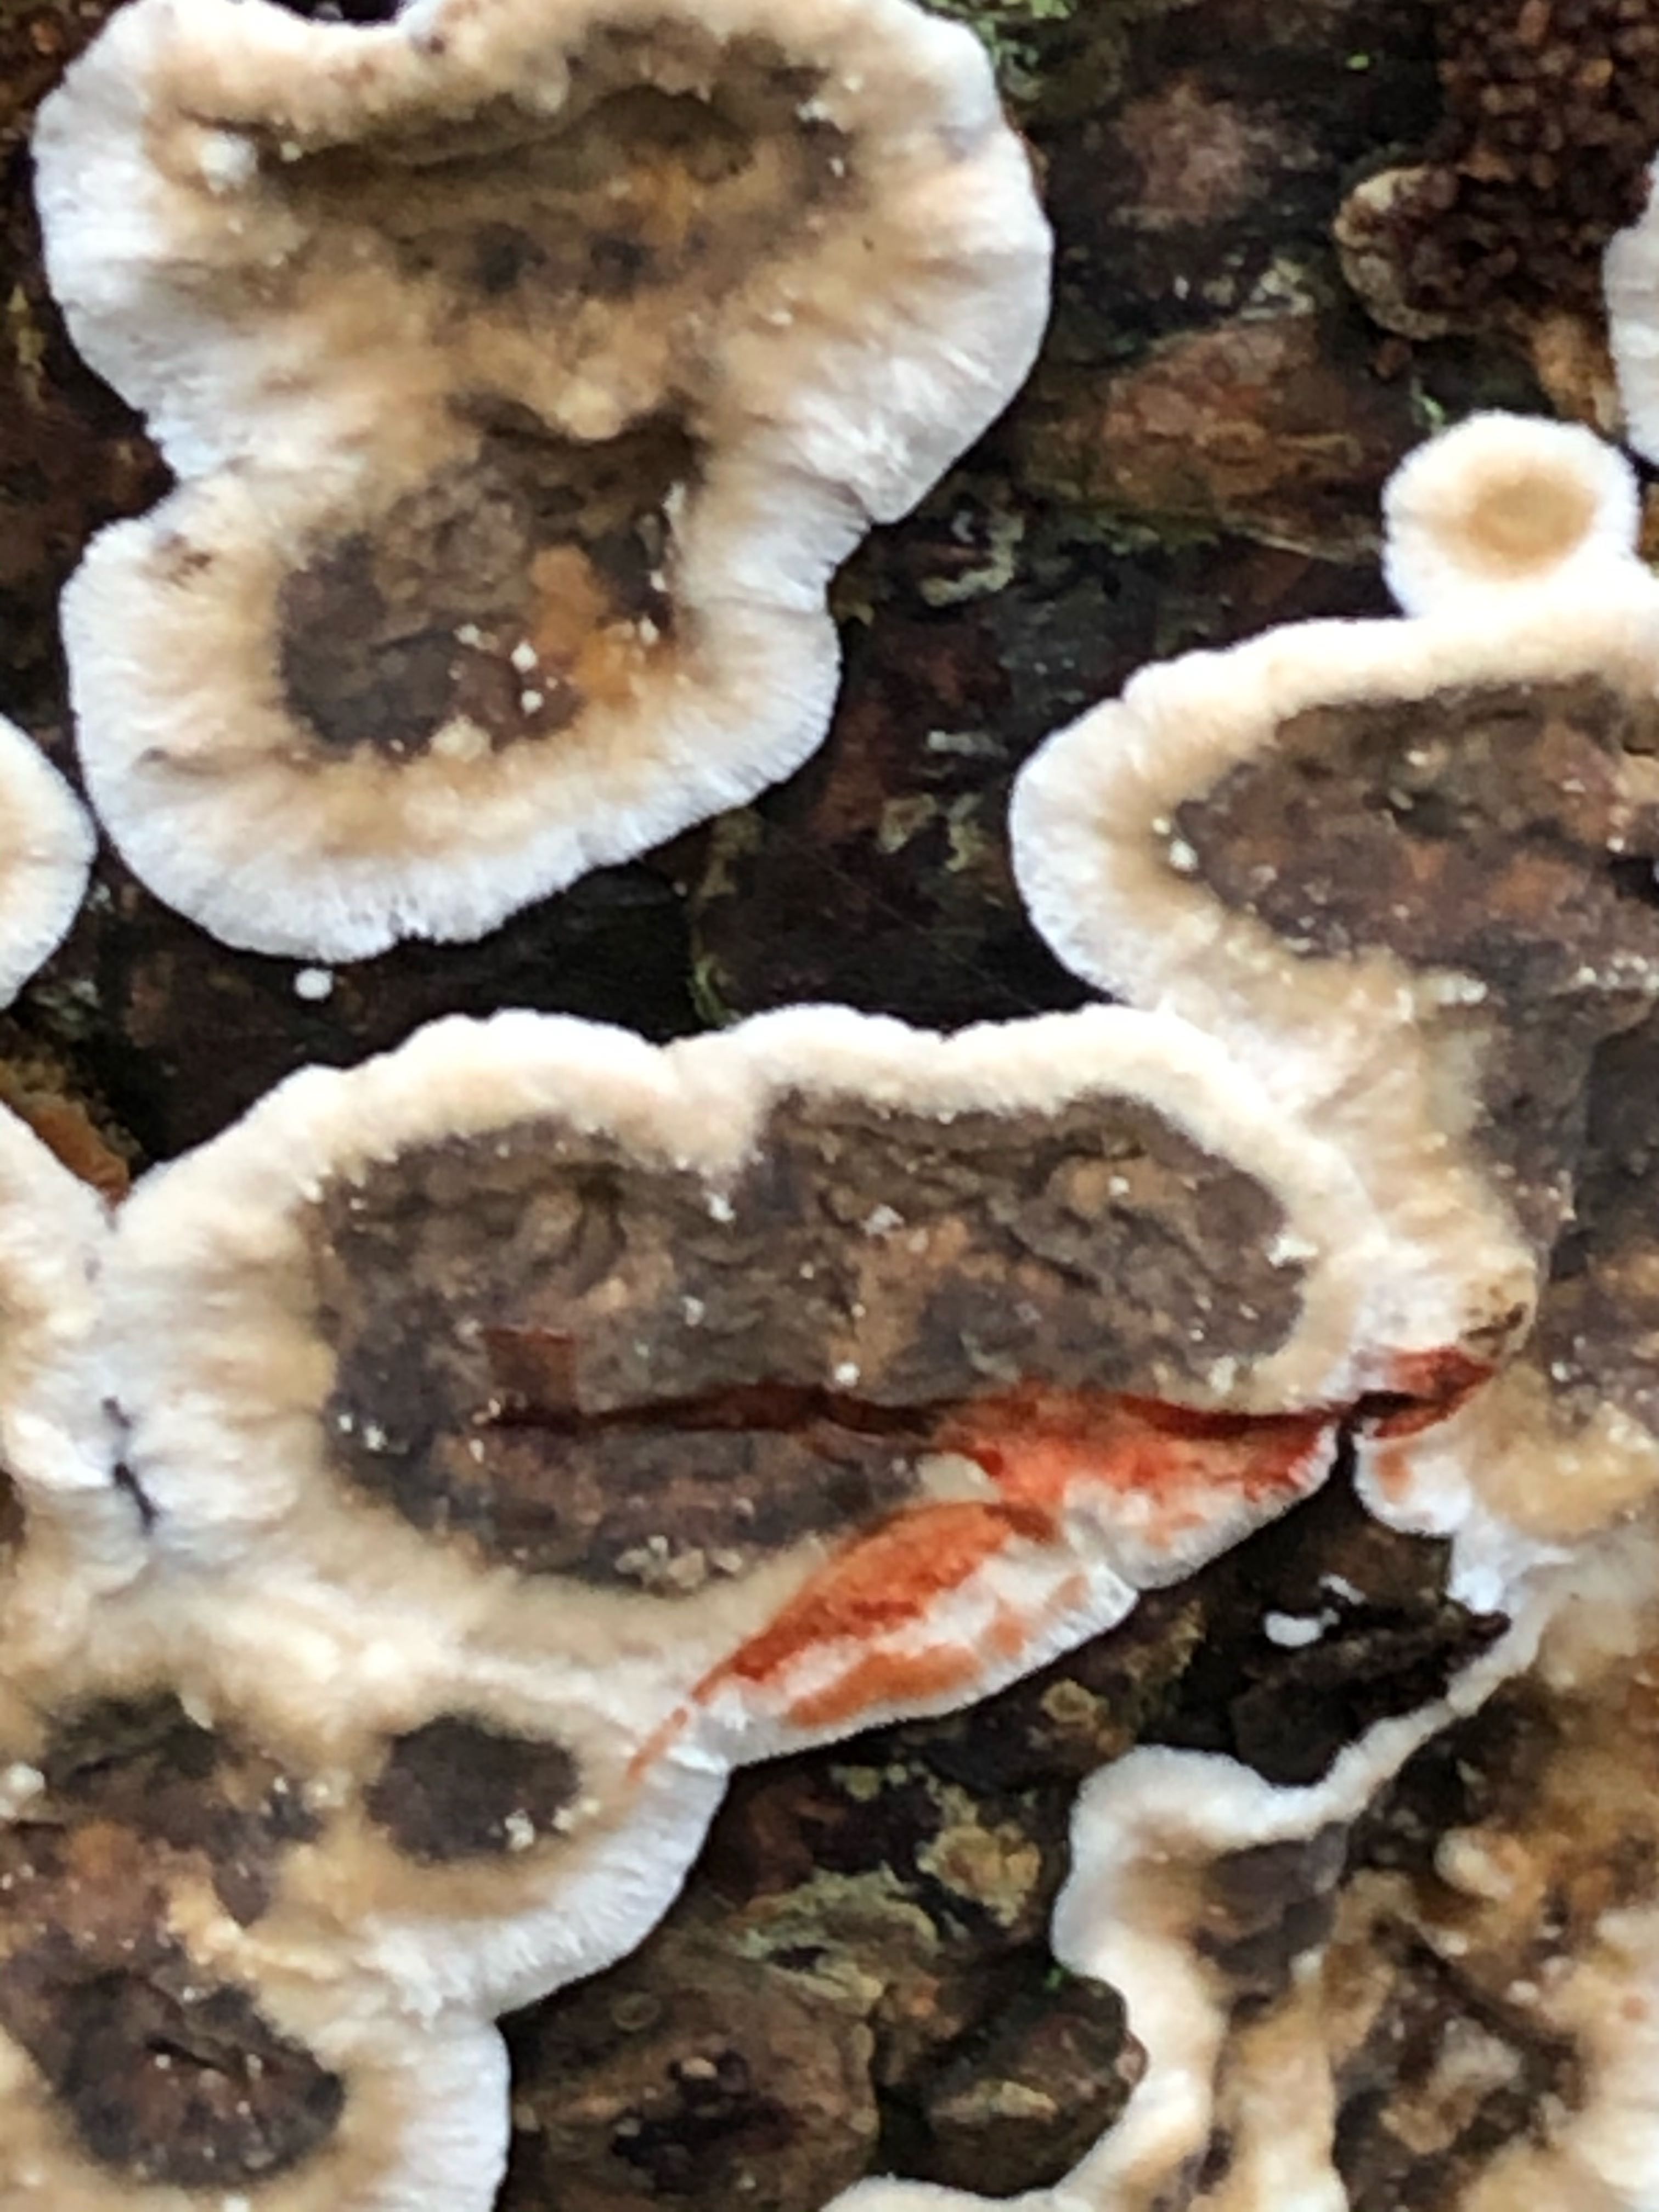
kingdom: Fungi
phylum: Basidiomycota
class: Agaricomycetes
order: Russulales
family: Stereaceae
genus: Stereum
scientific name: Stereum sanguinolentum
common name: blødende lædersvamp
